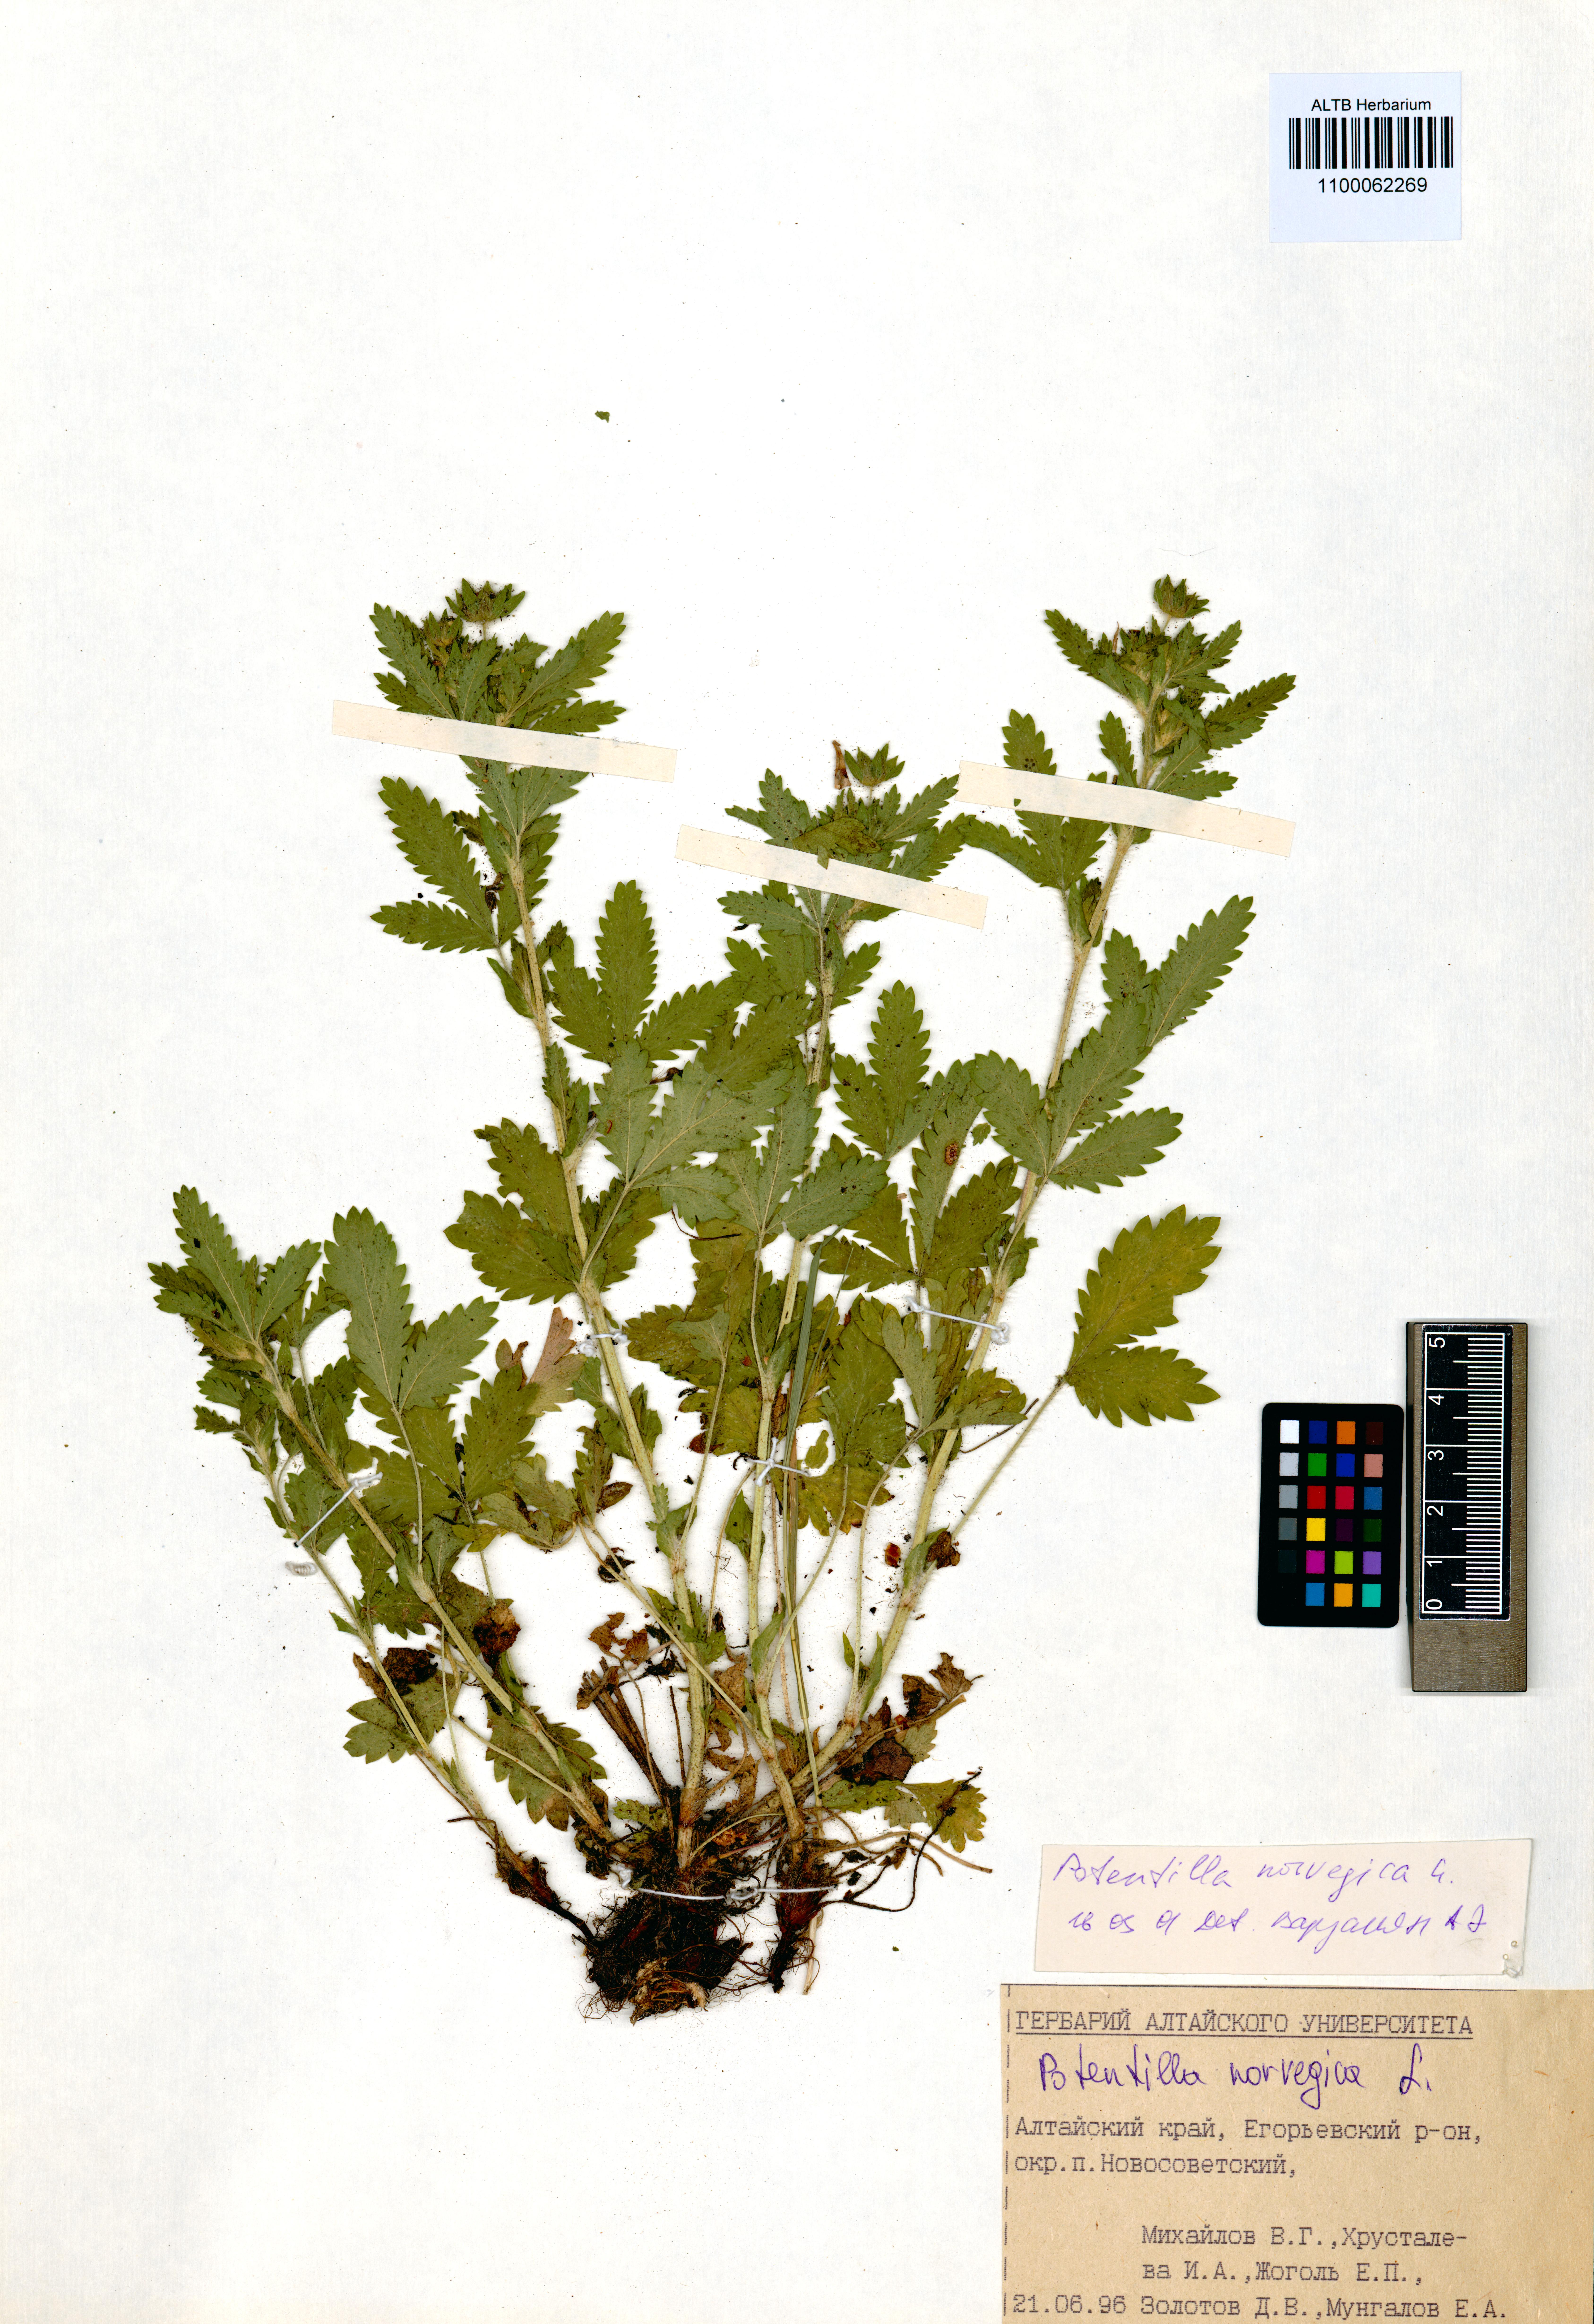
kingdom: Plantae
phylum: Tracheophyta
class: Magnoliopsida
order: Rosales
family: Rosaceae
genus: Potentilla
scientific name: Potentilla norvegica
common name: Ternate-leaved cinquefoil
